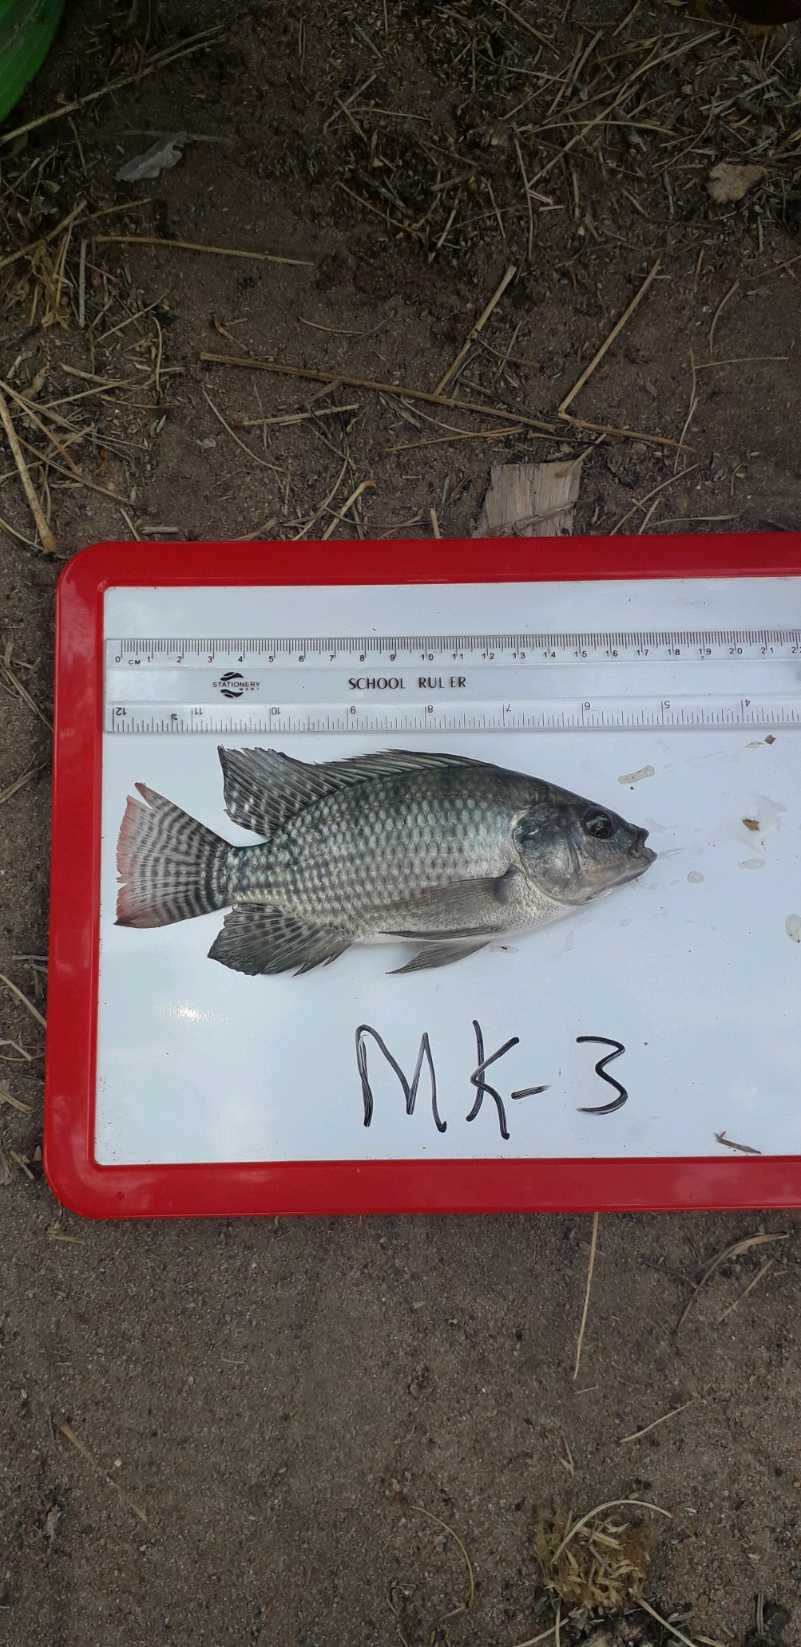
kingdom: Animalia
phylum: Chordata
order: Perciformes
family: Cichlidae
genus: Oreochromis
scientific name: Oreochromis niloticus
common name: Nile tilapia
